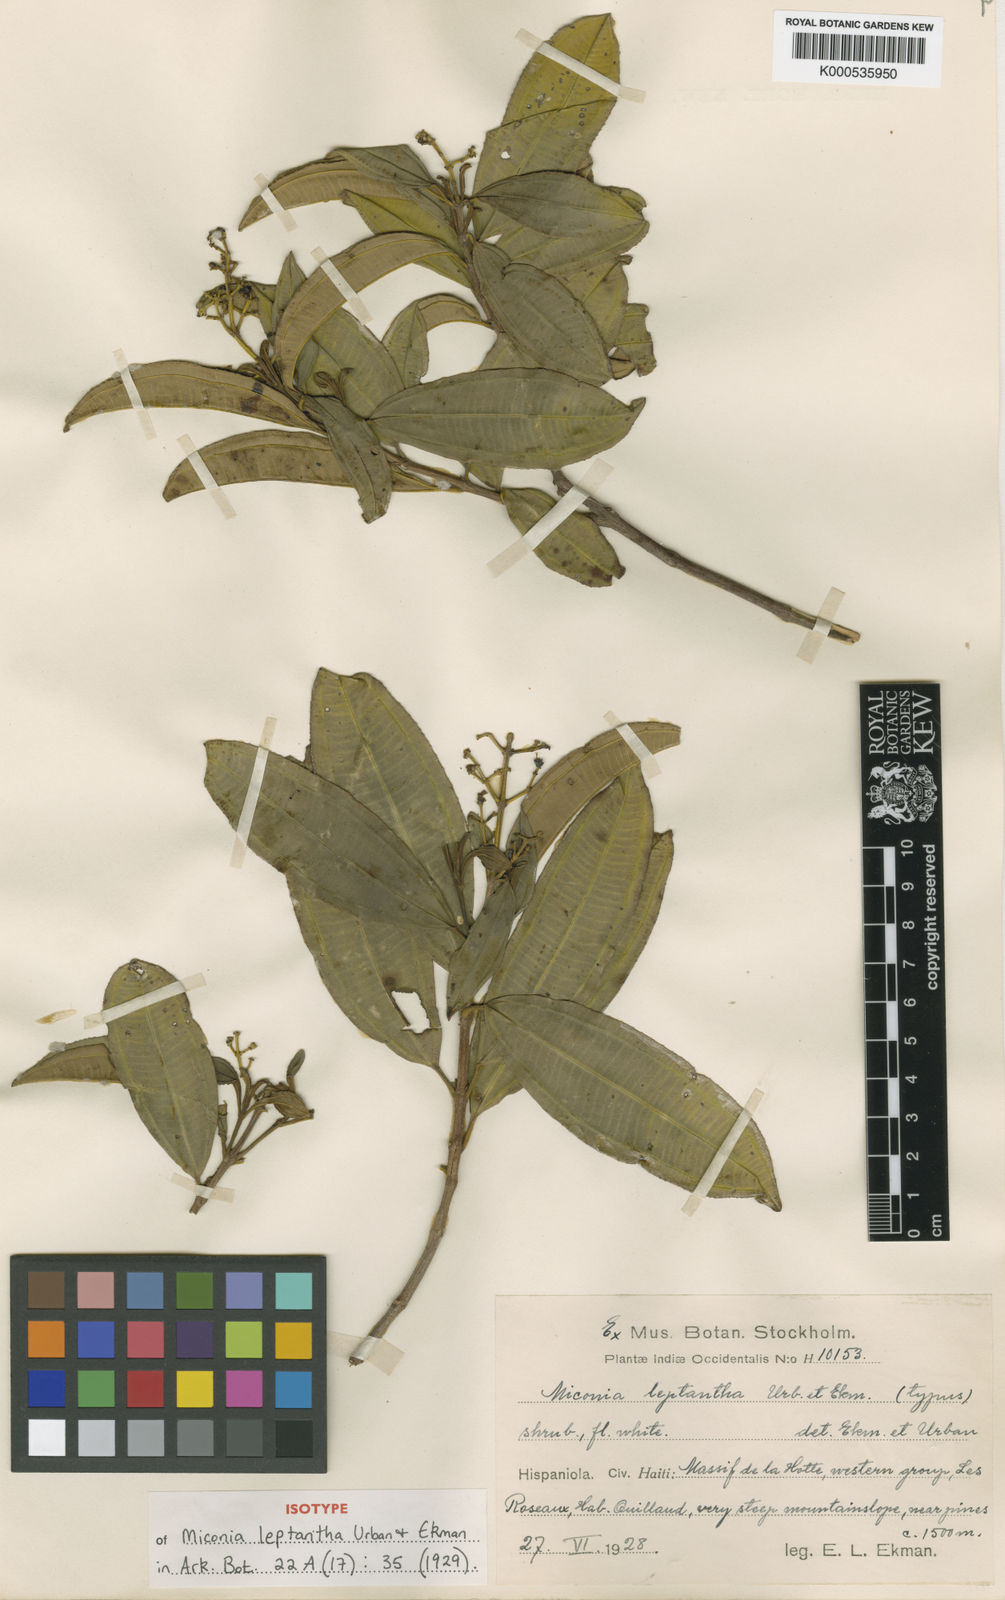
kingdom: Plantae
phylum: Tracheophyta
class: Magnoliopsida
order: Myrtales
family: Melastomataceae
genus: Miconia
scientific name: Miconia leptantha
